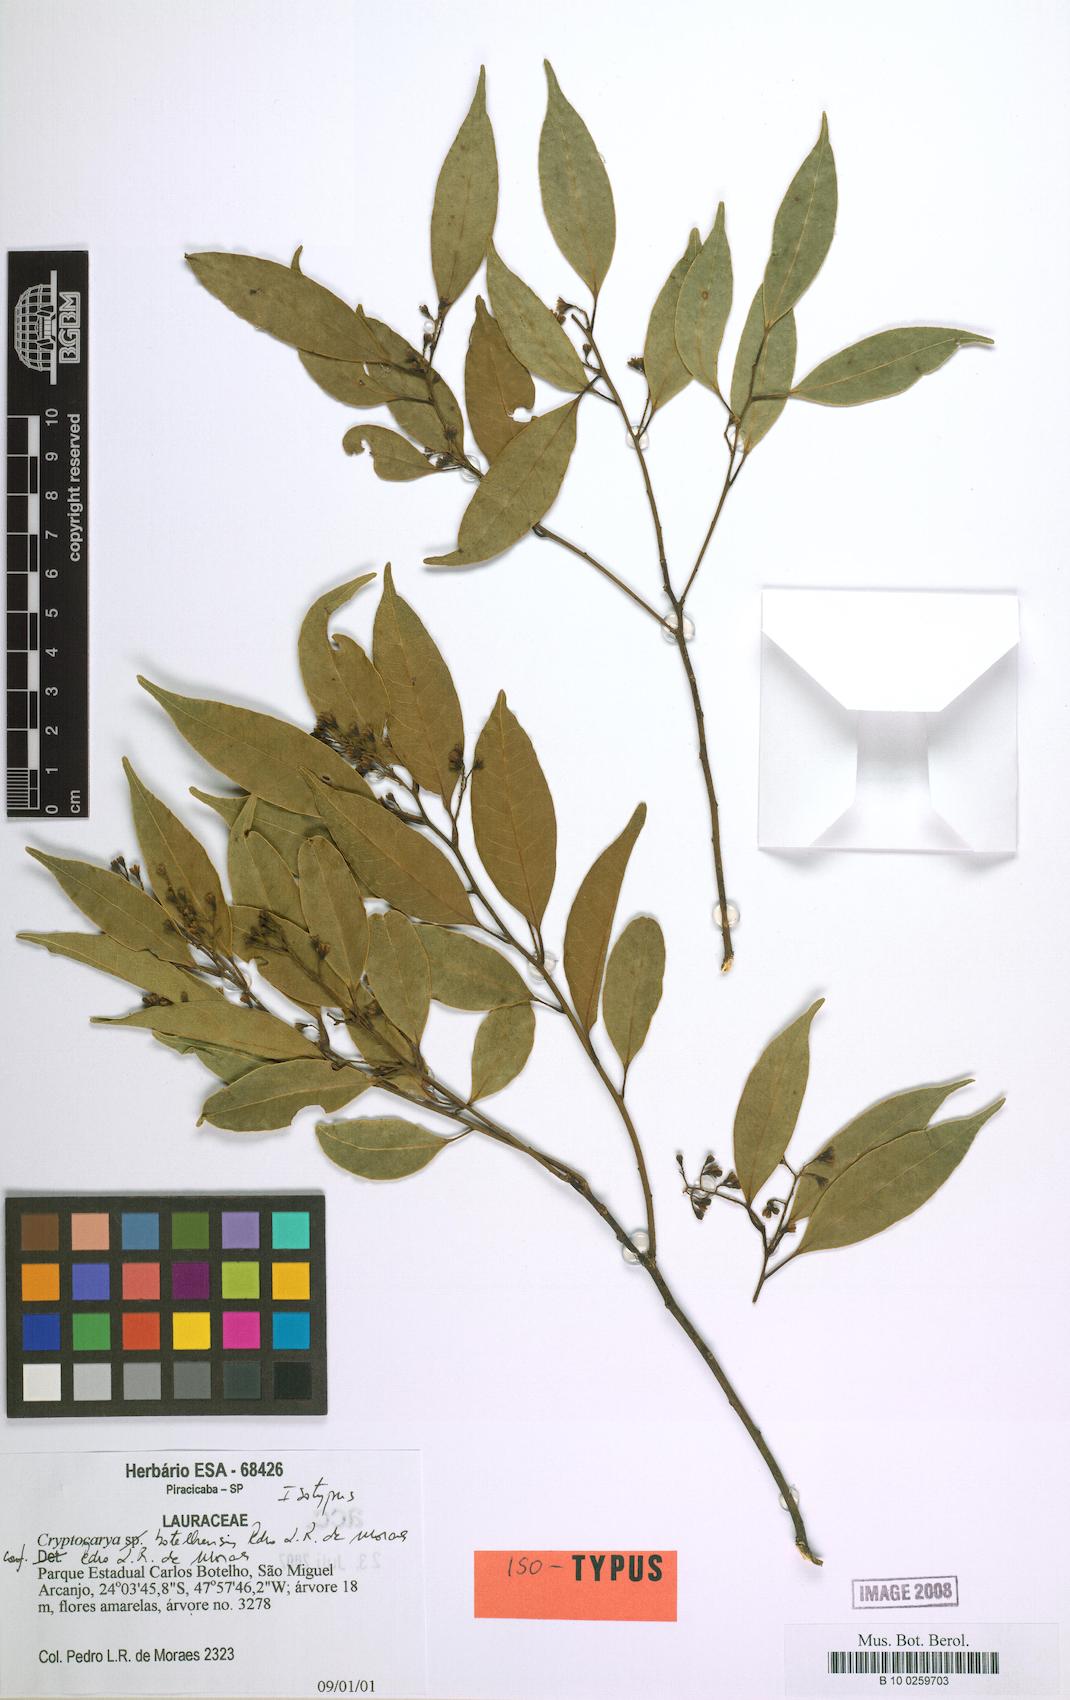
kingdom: Plantae
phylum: Tracheophyta
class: Magnoliopsida
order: Laurales
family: Lauraceae
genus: Cryptocarya
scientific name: Cryptocarya botelhensis
